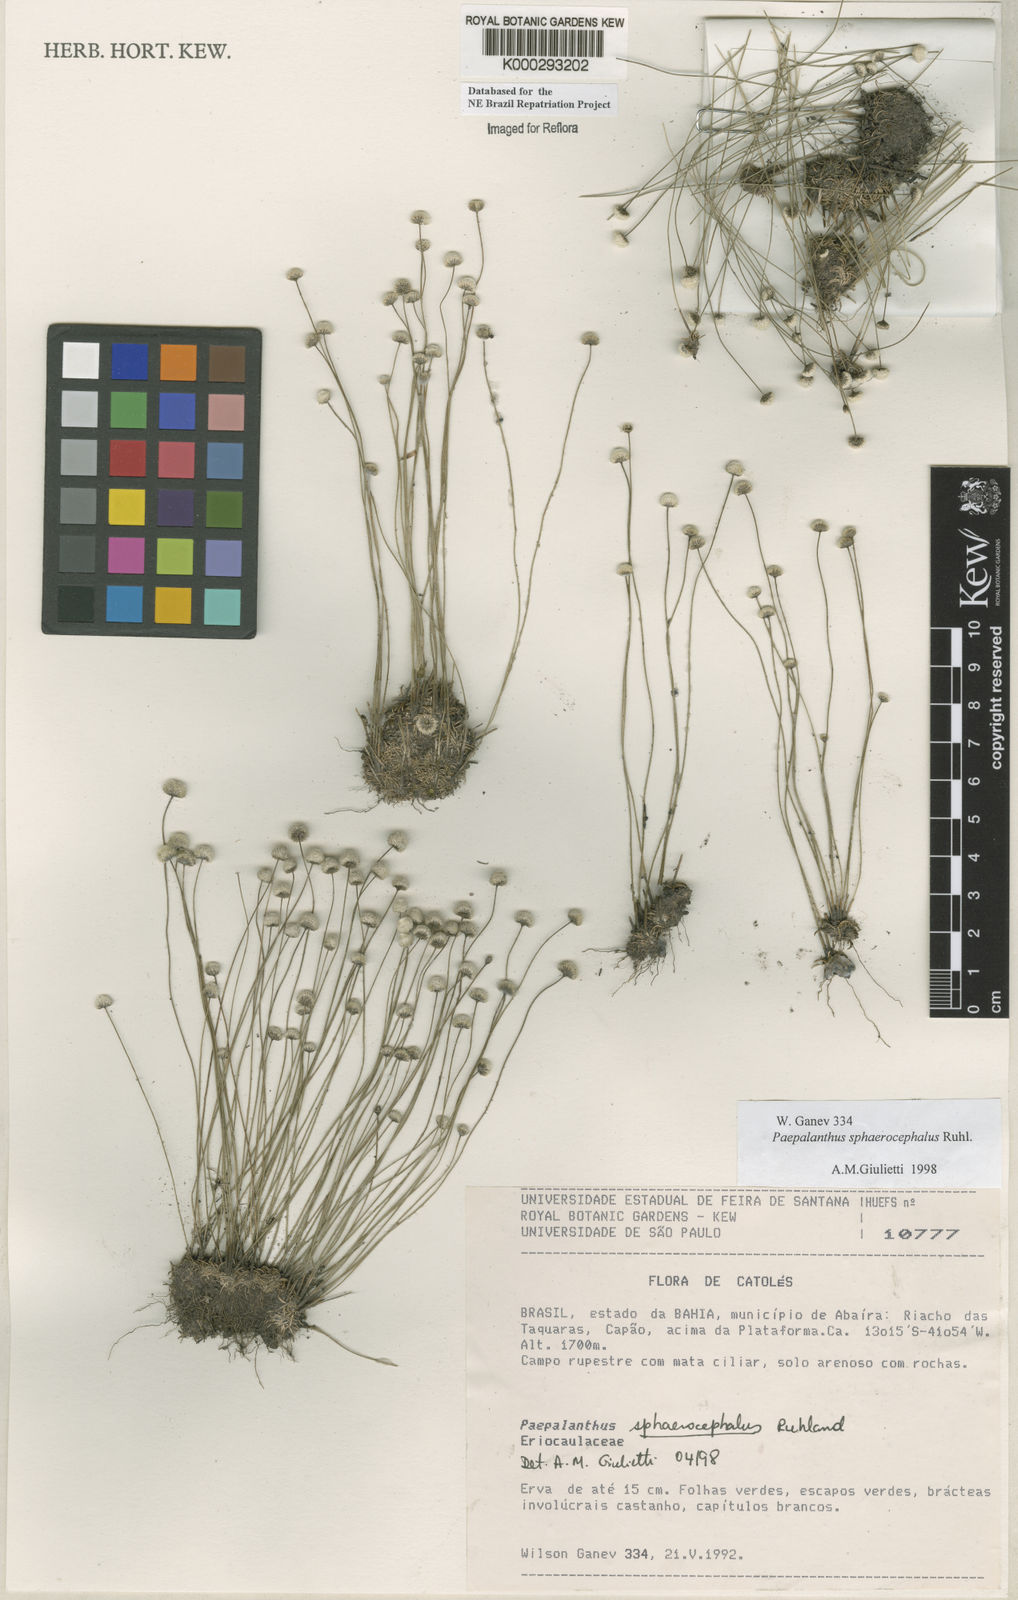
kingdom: Plantae
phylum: Tracheophyta
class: Liliopsida
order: Poales
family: Eriocaulaceae
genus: Paepalanthus
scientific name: Paepalanthus sphaerocephalus
